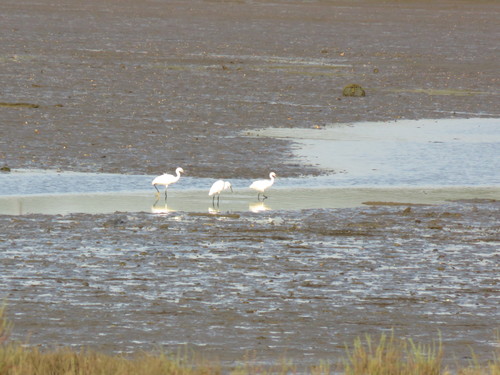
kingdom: Animalia
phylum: Chordata
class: Aves
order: Pelecaniformes
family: Ardeidae
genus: Egretta
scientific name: Egretta garzetta
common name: Little egret
